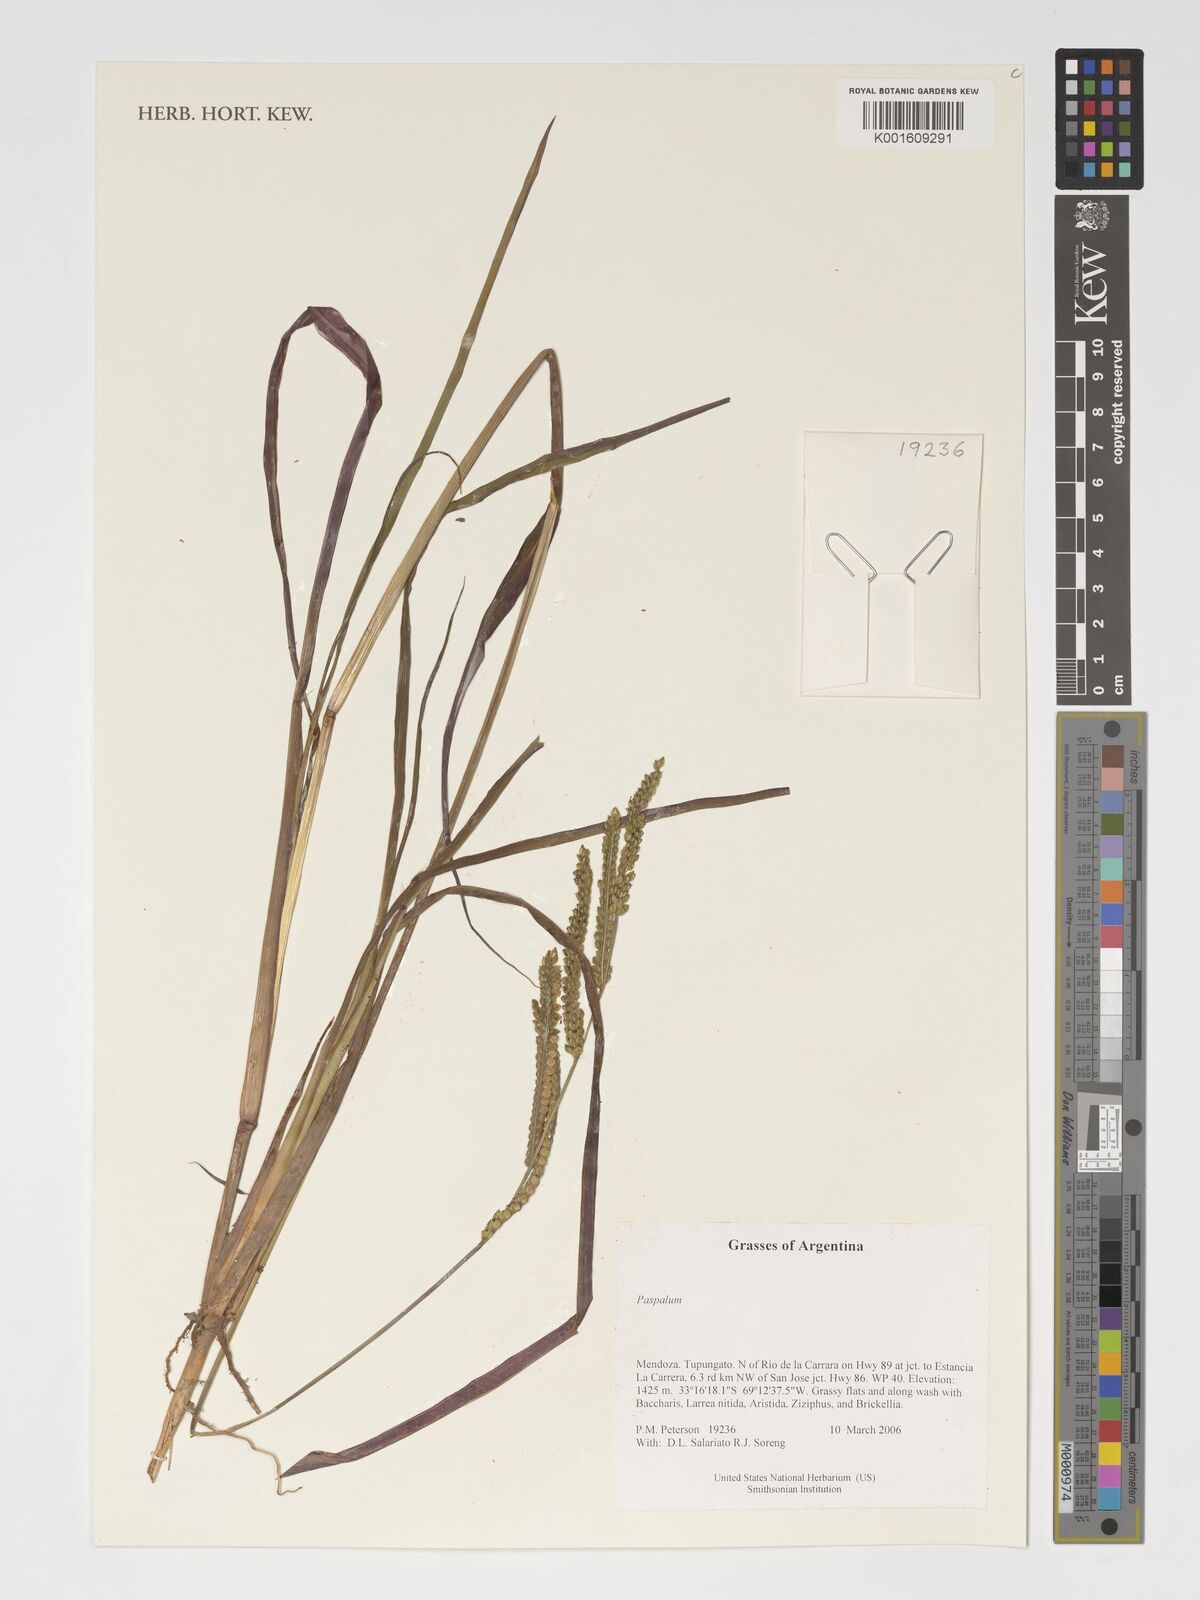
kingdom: Plantae
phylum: Tracheophyta
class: Liliopsida
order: Poales
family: Poaceae
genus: Paspalum
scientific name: Paspalum
